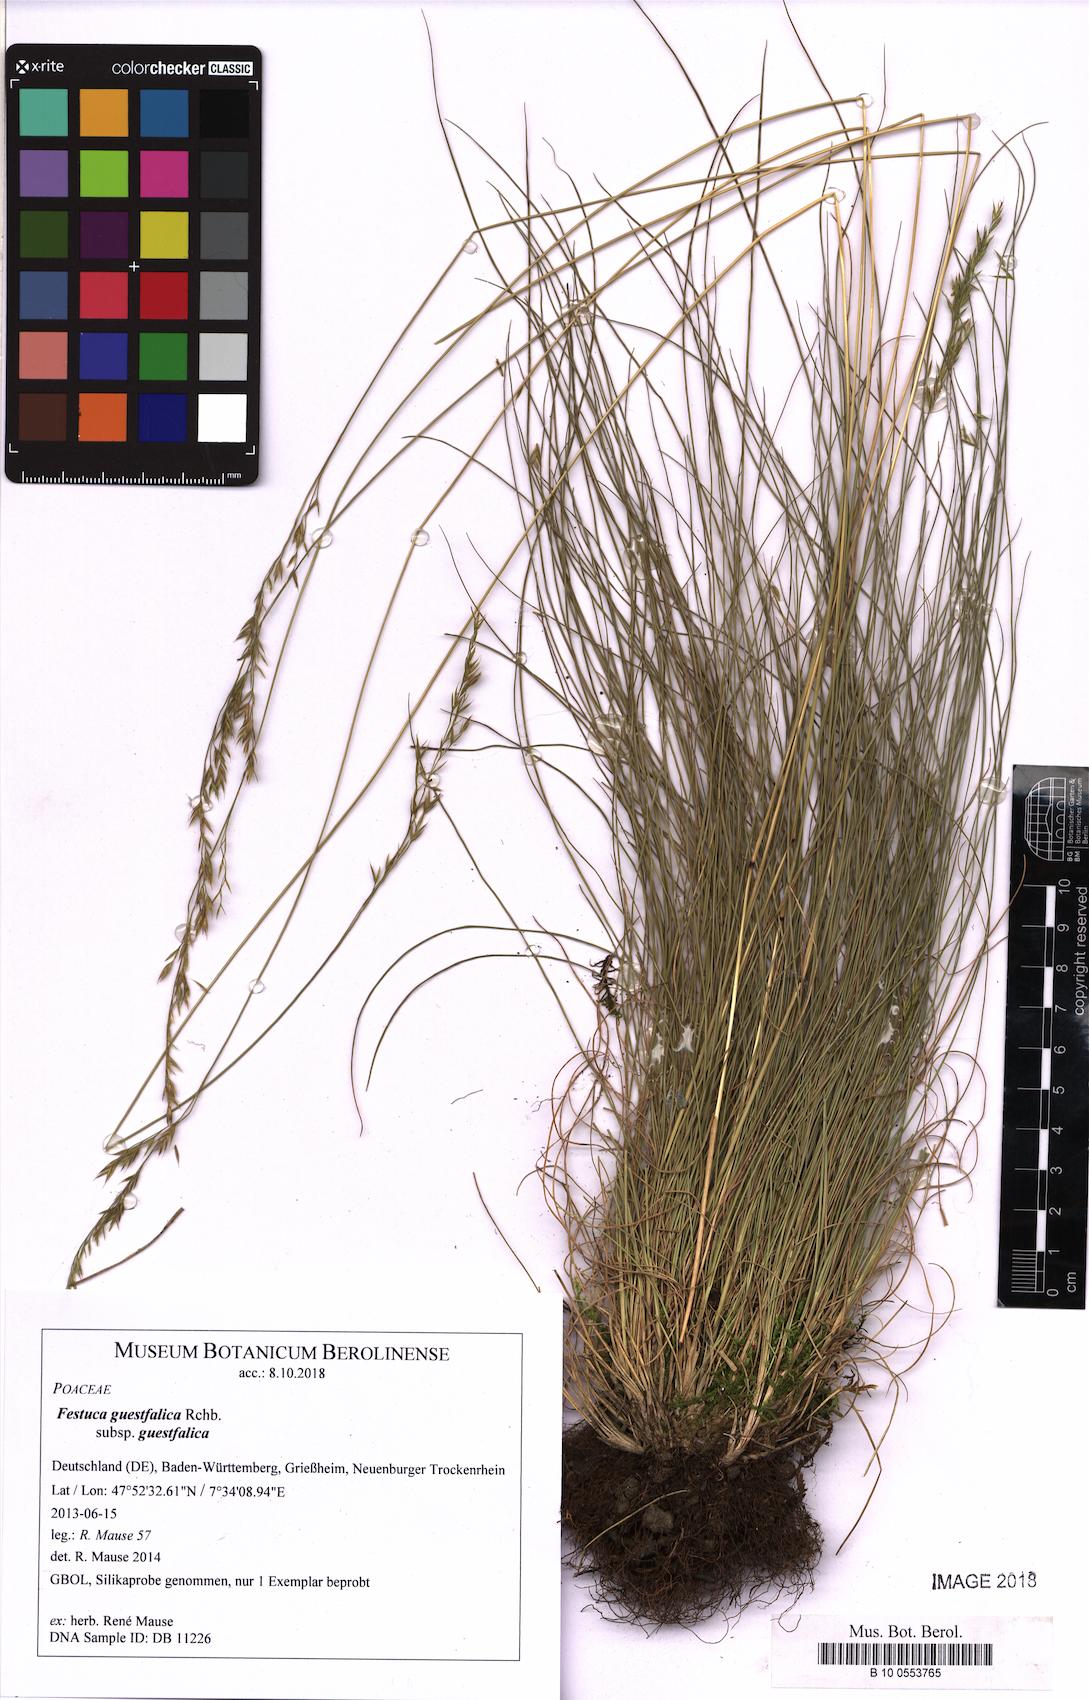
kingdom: Plantae
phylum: Tracheophyta
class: Liliopsida
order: Poales
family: Poaceae
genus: Festuca
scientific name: Festuca guestfalica
